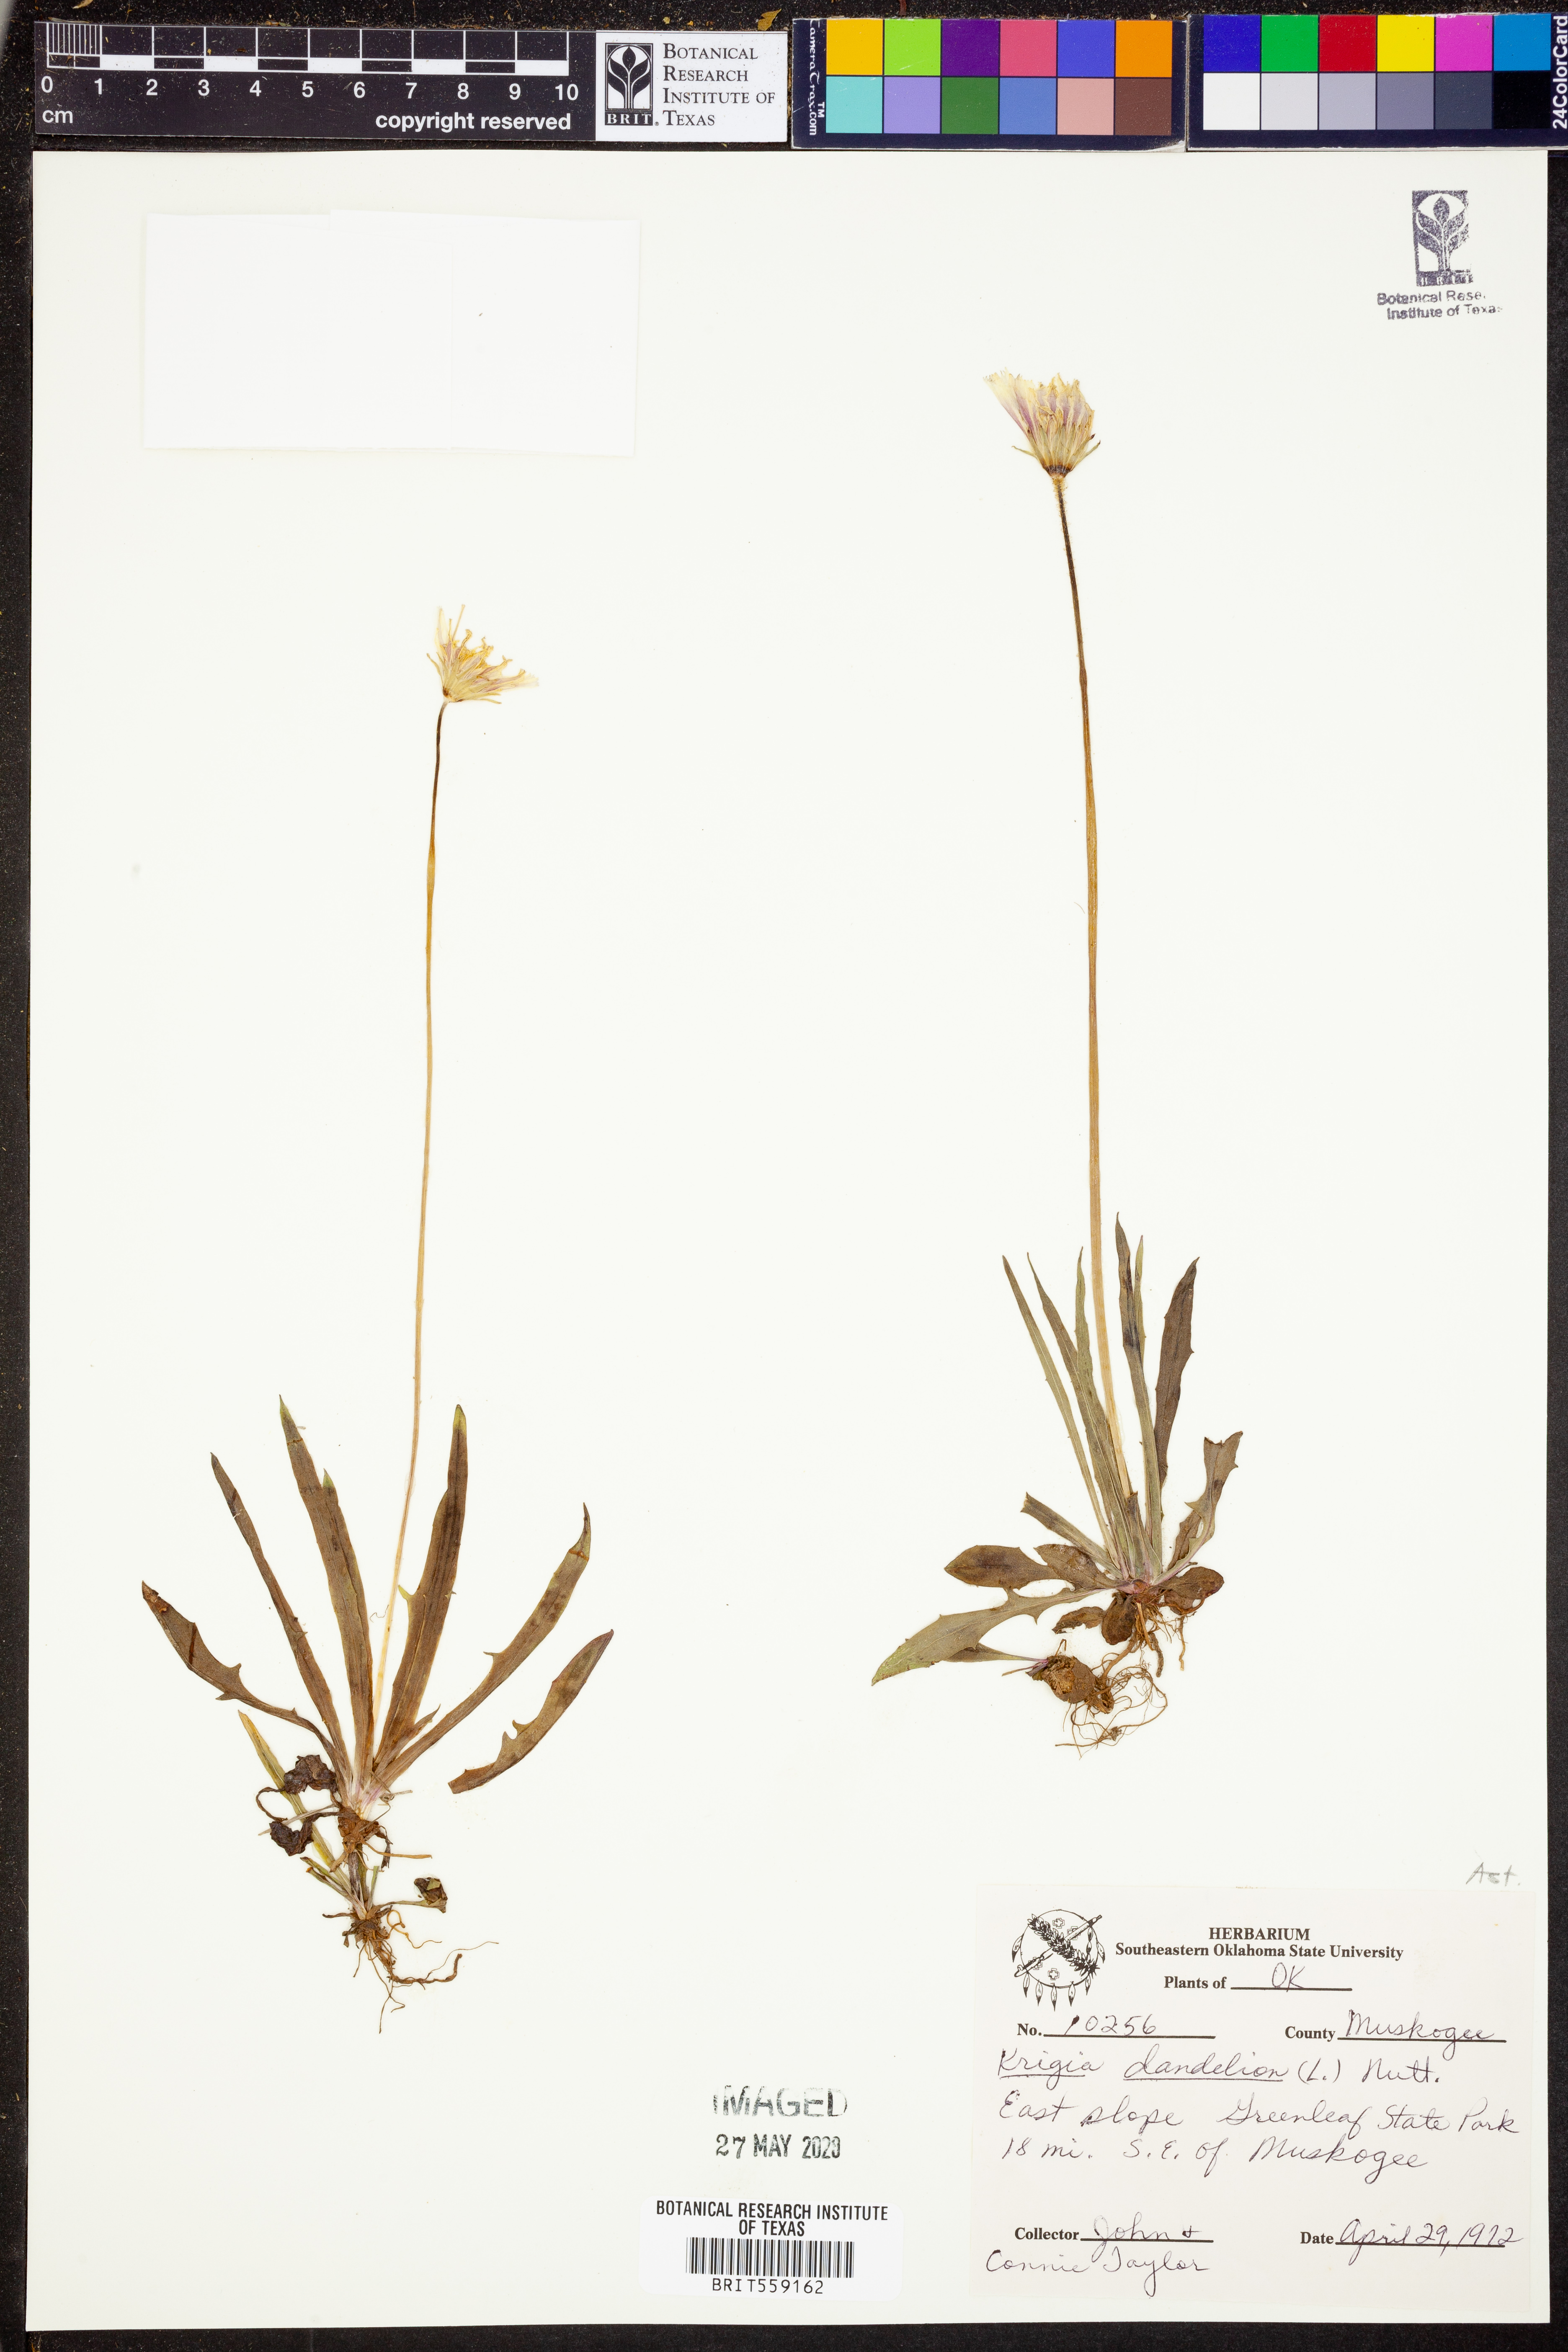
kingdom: Plantae
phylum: Tracheophyta
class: Magnoliopsida
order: Asterales
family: Asteraceae
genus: Krigia
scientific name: Krigia dandelion
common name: Colonial dwarf-dandelion
